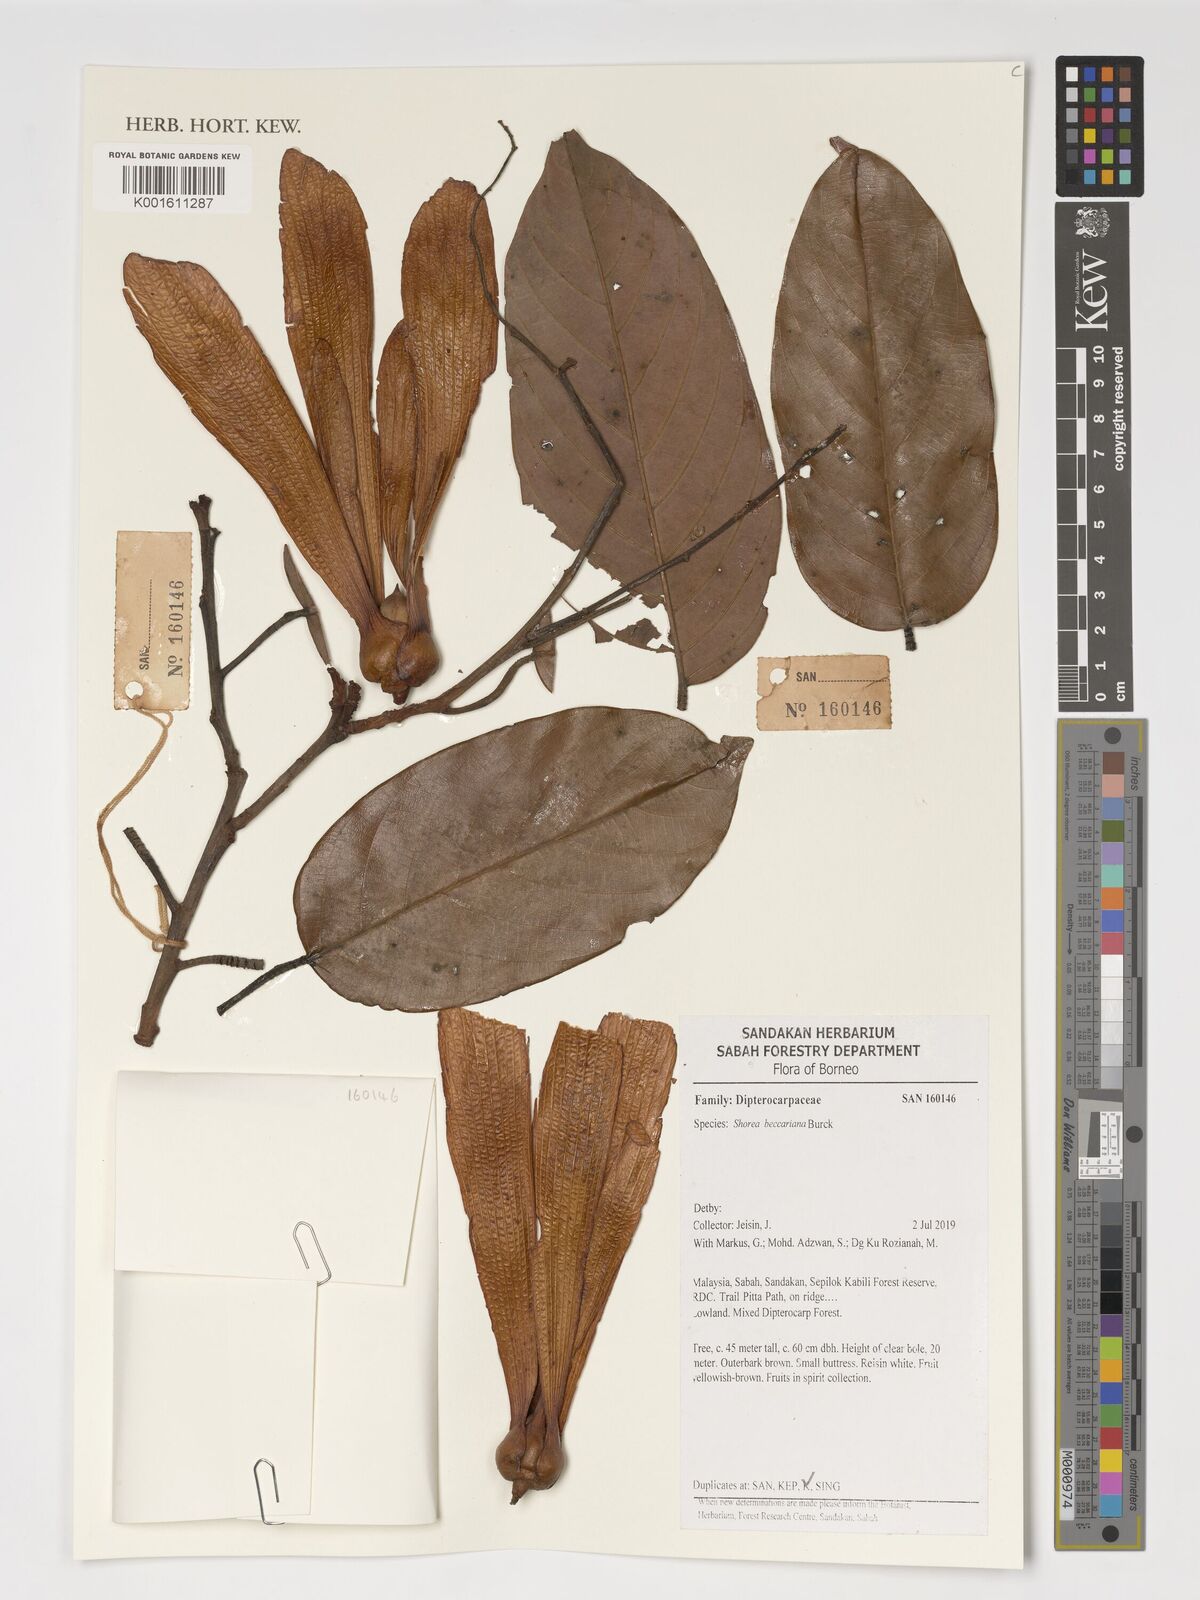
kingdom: Plantae
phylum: Tracheophyta
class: Magnoliopsida
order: Malvales
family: Dipterocarpaceae
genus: Shorea
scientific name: Shorea beccariana
